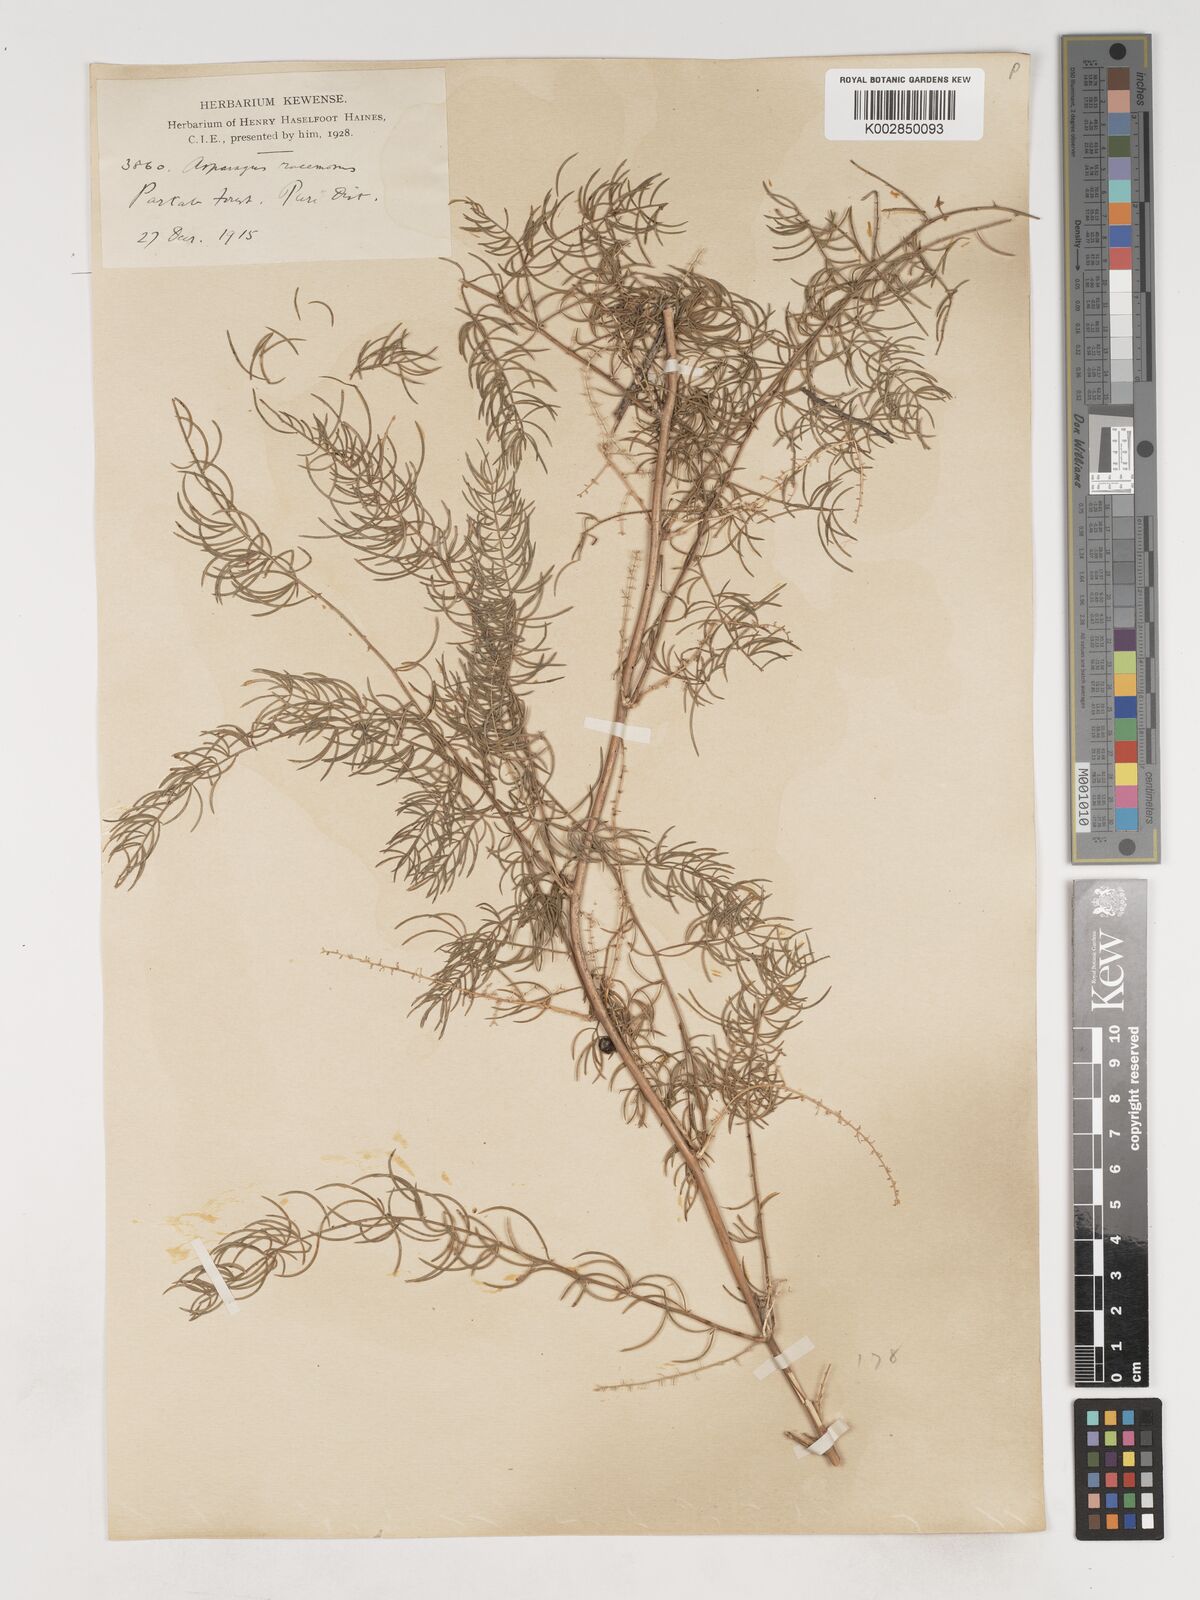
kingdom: Plantae
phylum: Tracheophyta
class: Liliopsida
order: Asparagales
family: Asparagaceae
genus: Asparagus
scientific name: Asparagus racemosus
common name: Asparagus-fern
